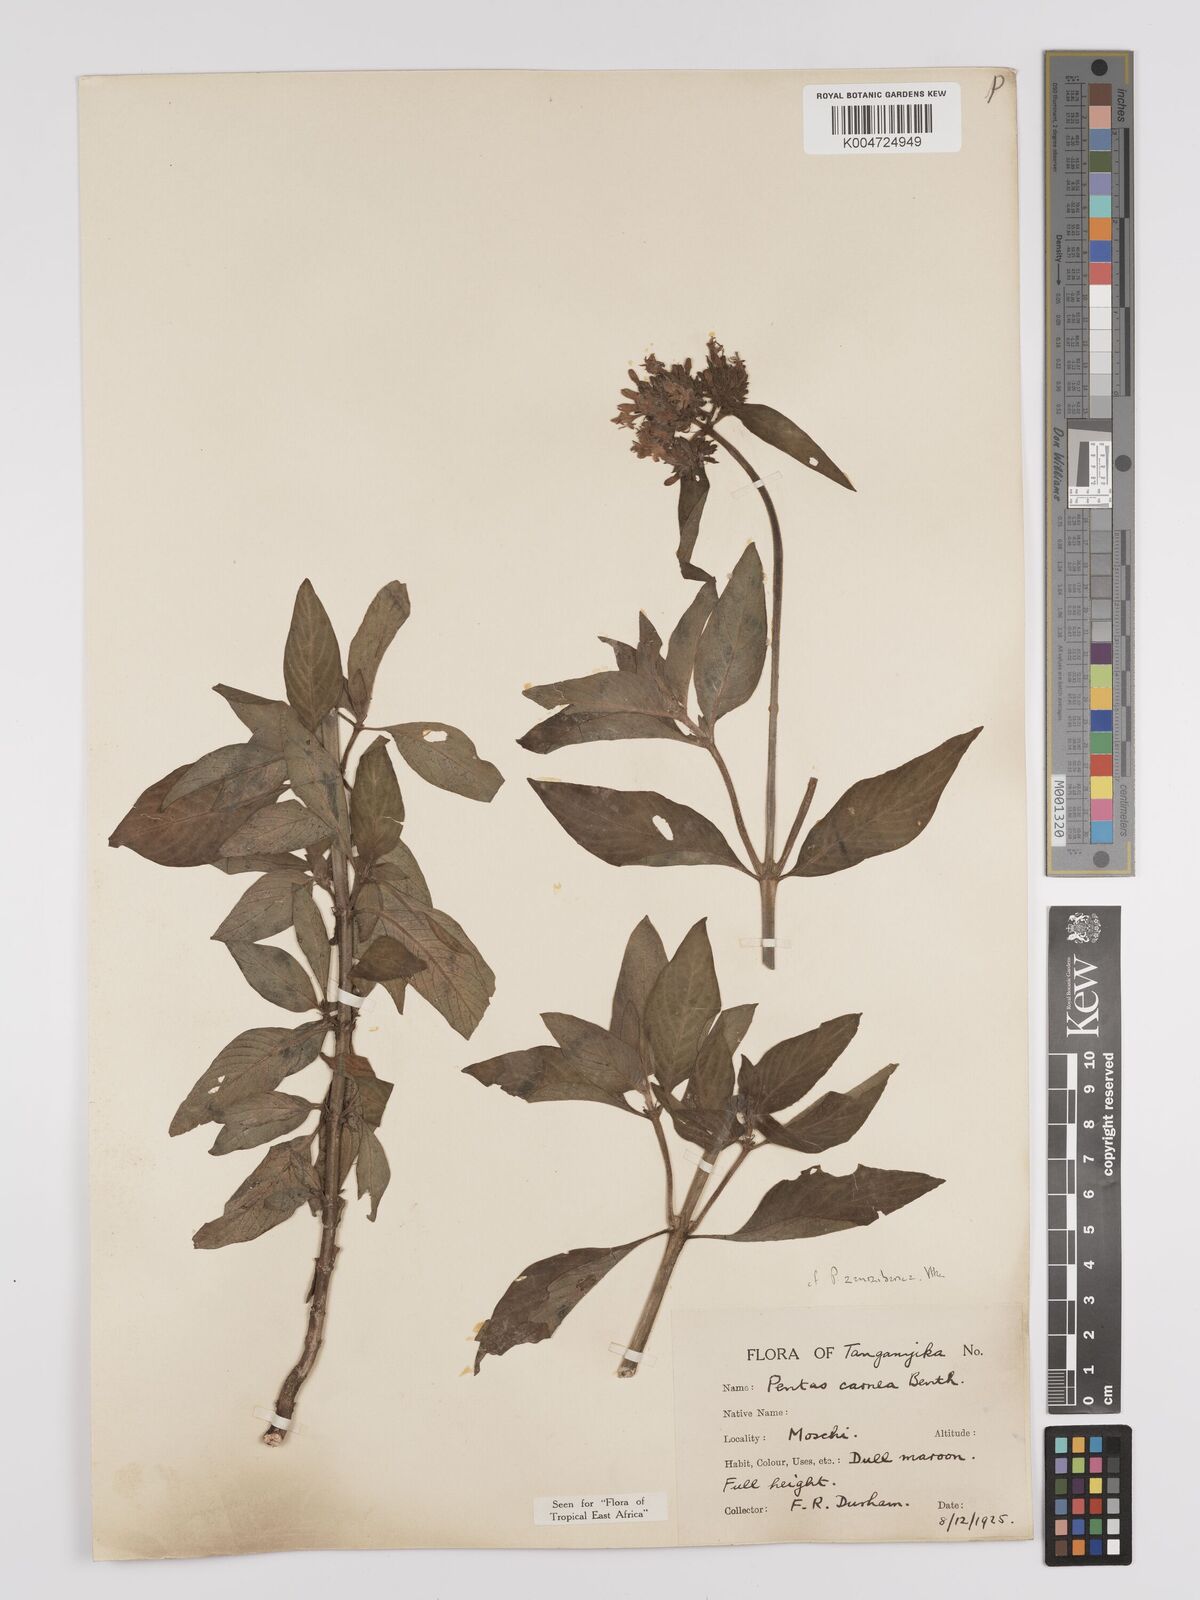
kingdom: Plantae
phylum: Tracheophyta
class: Magnoliopsida
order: Gentianales
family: Rubiaceae
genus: Pentas
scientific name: Pentas zanzibarica
